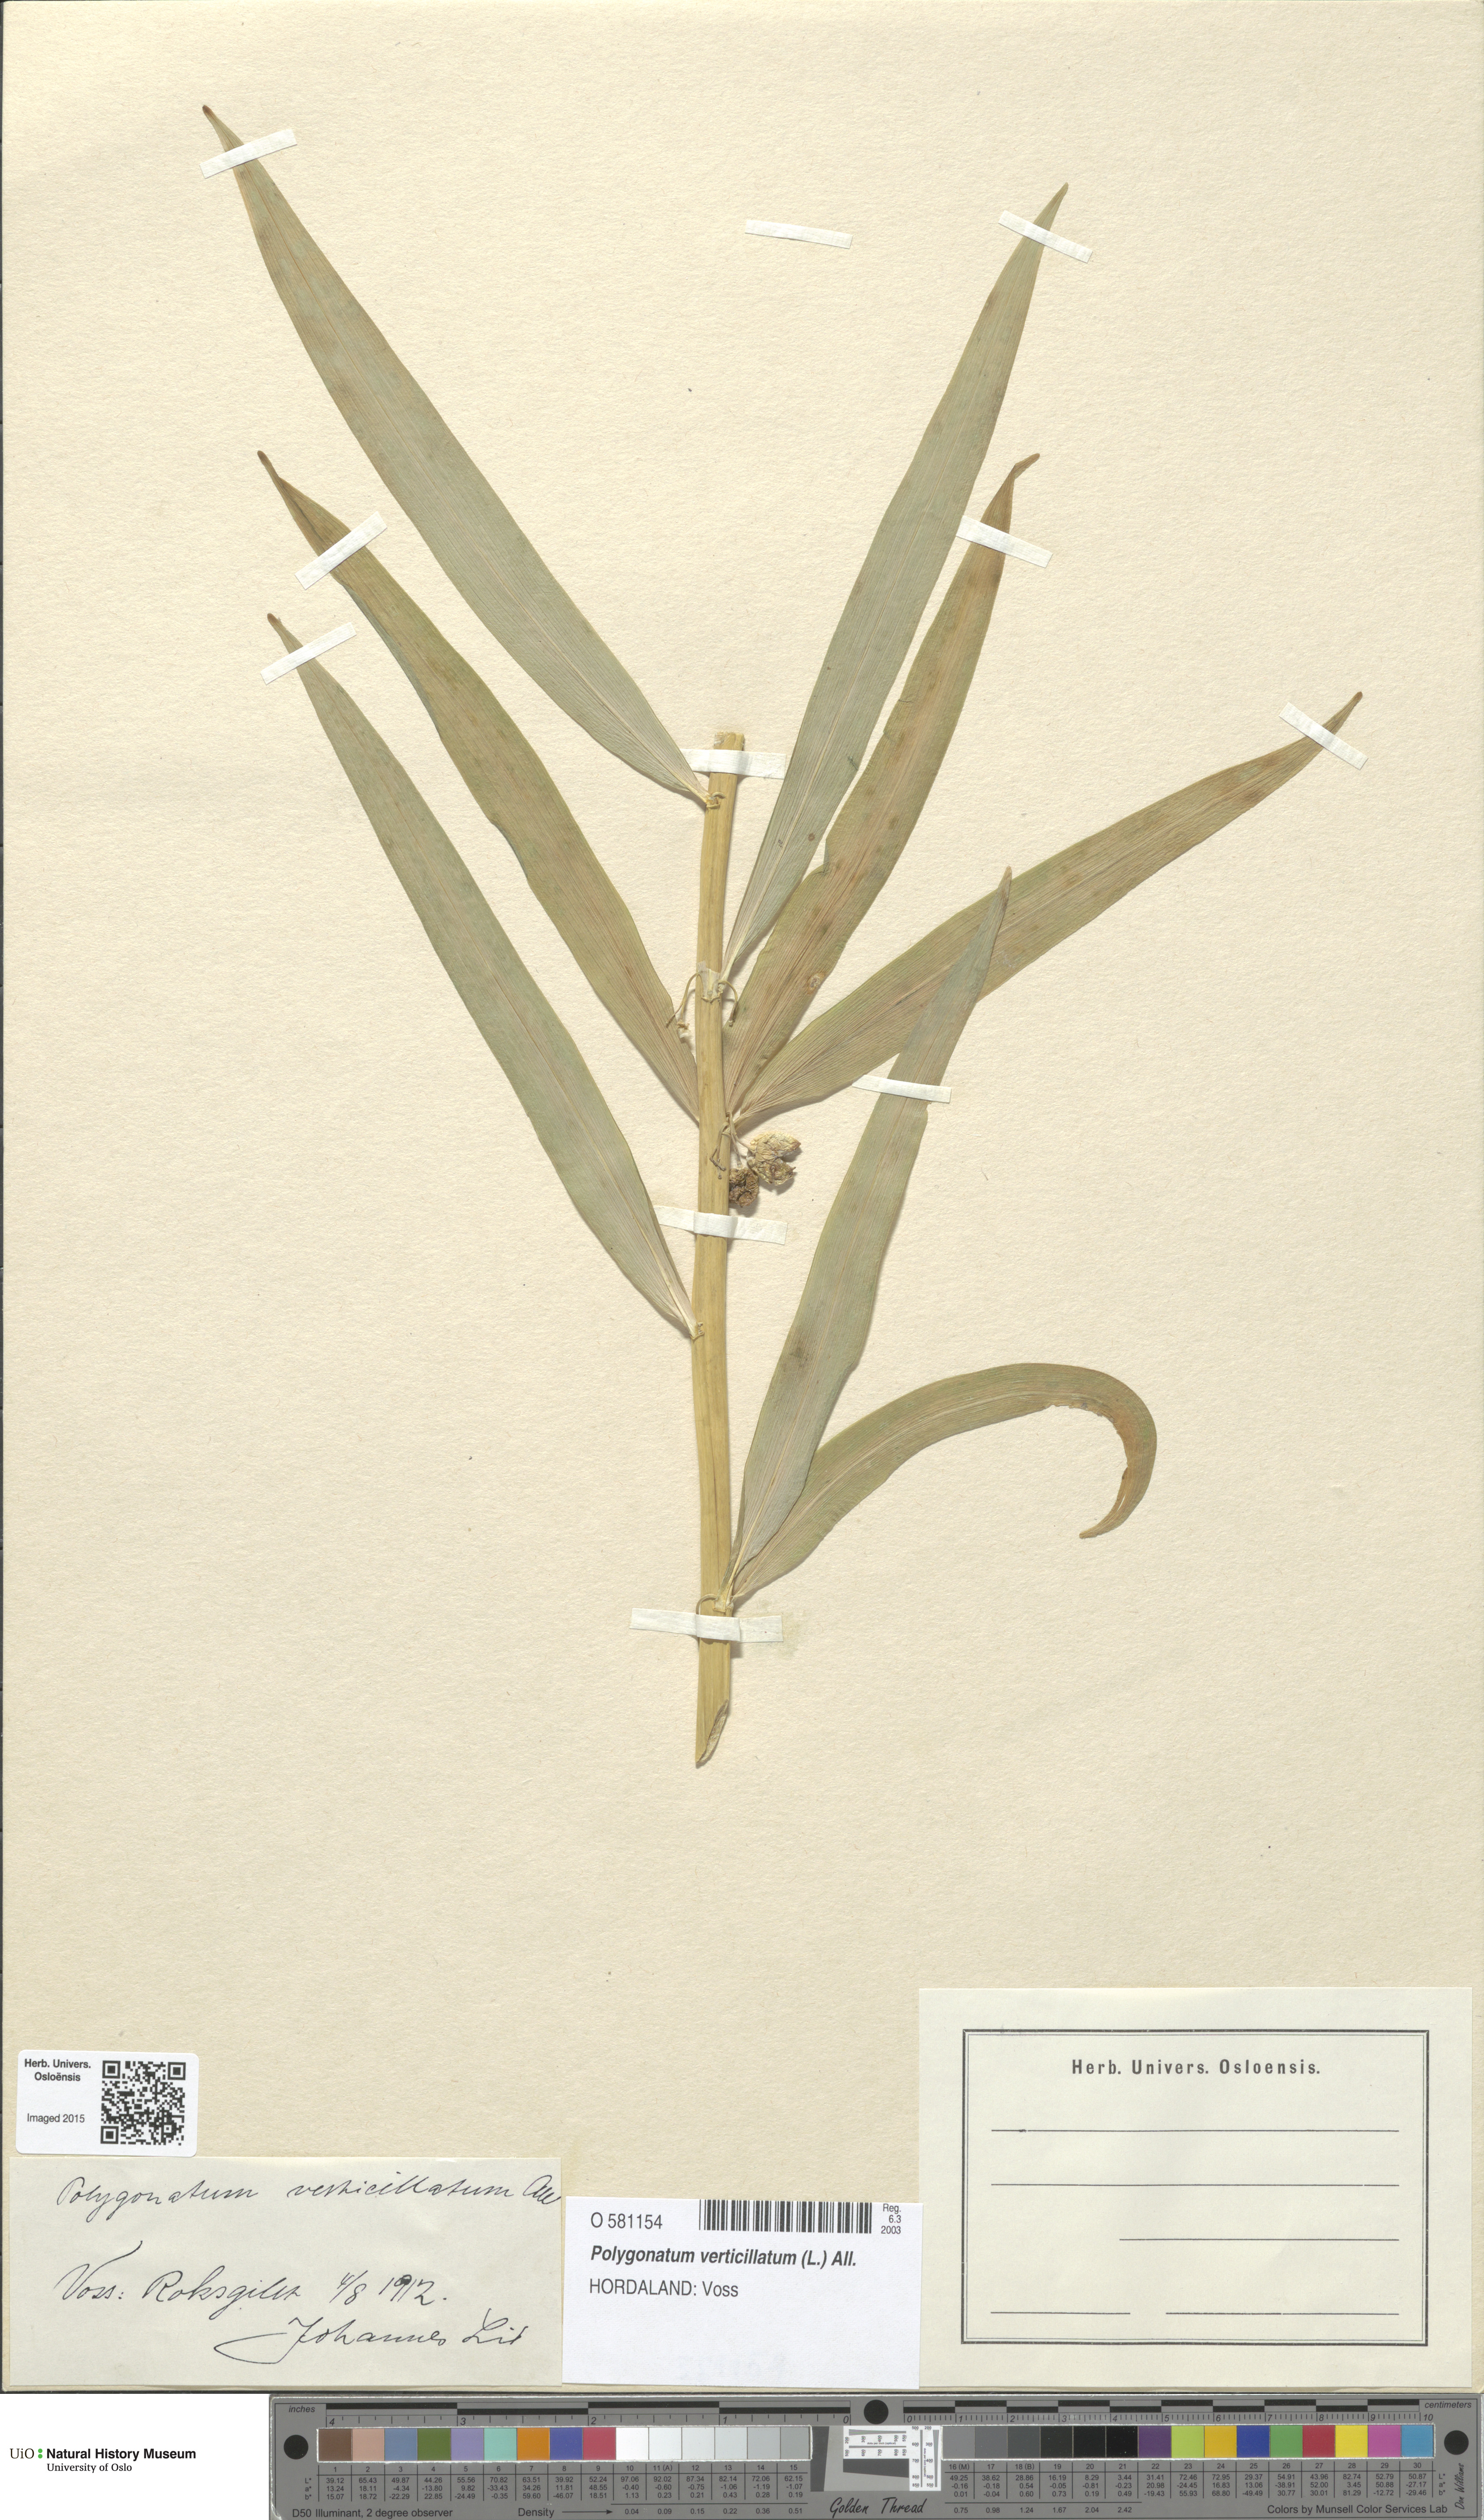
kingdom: Plantae
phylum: Tracheophyta
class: Liliopsida
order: Asparagales
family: Asparagaceae
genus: Polygonatum
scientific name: Polygonatum verticillatum
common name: Whorled solomon's-seal
